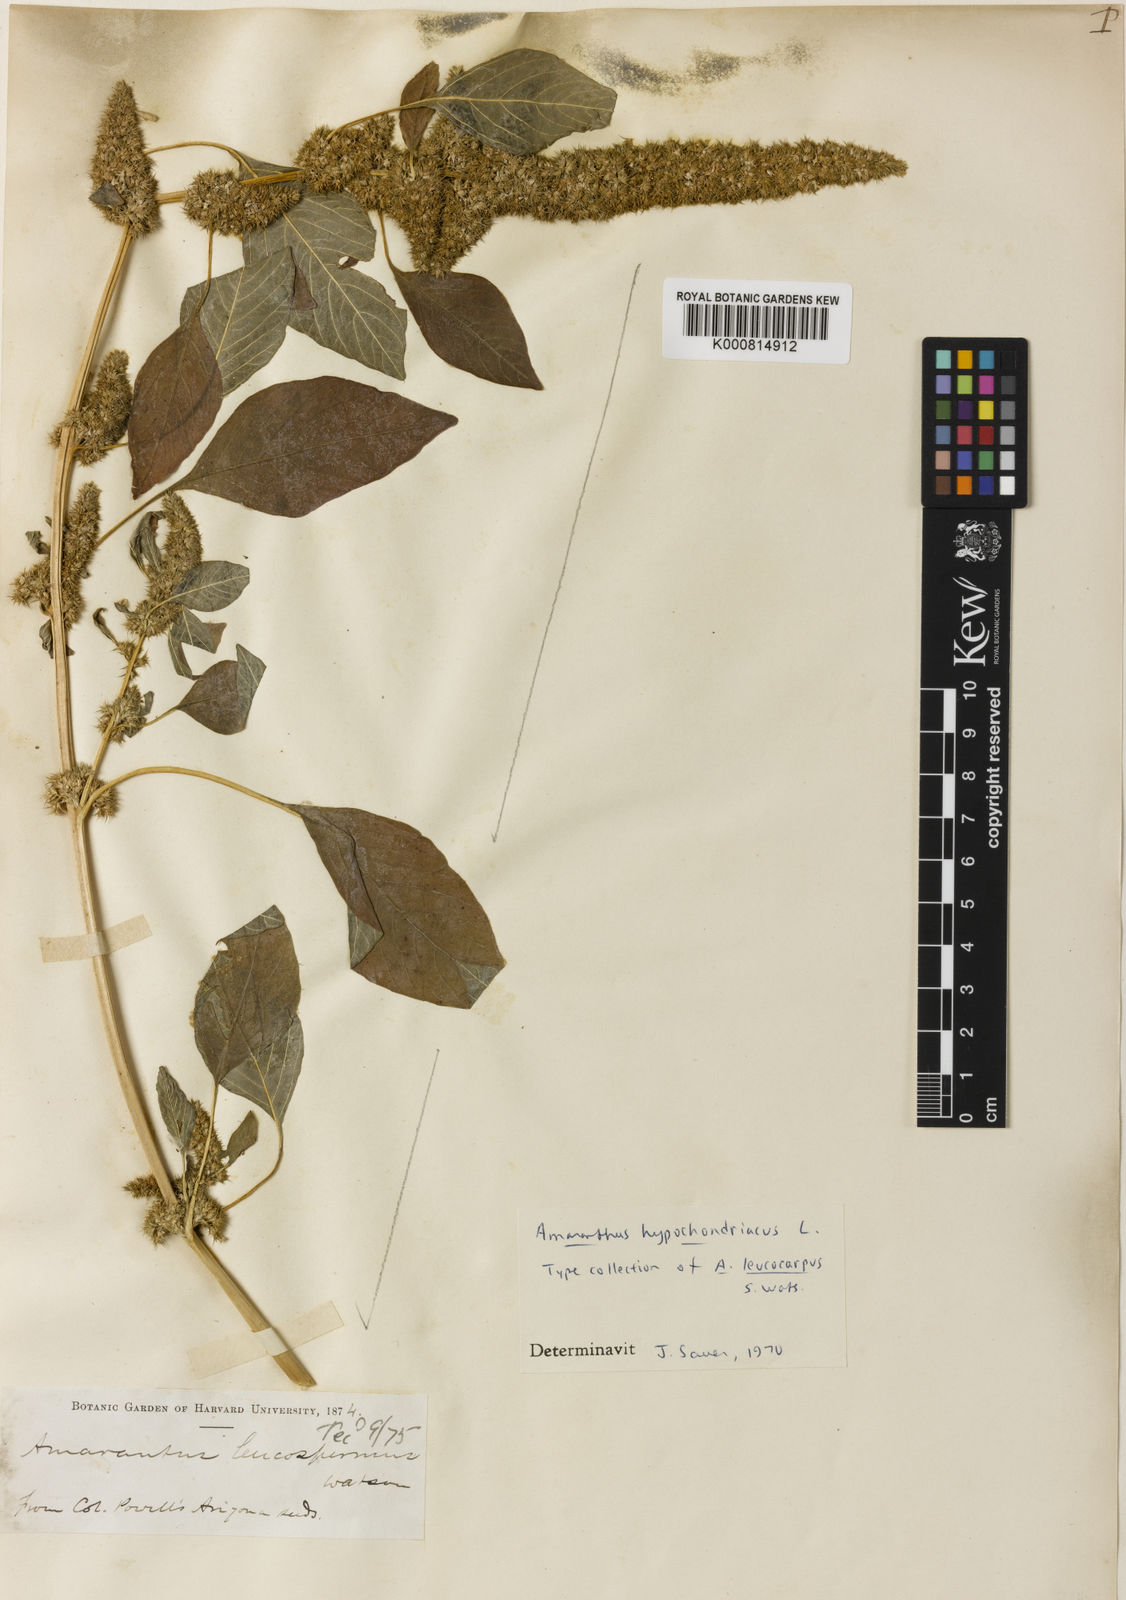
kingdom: Plantae
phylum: Tracheophyta
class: Magnoliopsida
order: Caryophyllales
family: Amaranthaceae
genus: Amaranthus
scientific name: Amaranthus hypochondriacus
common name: Prince's-feather
